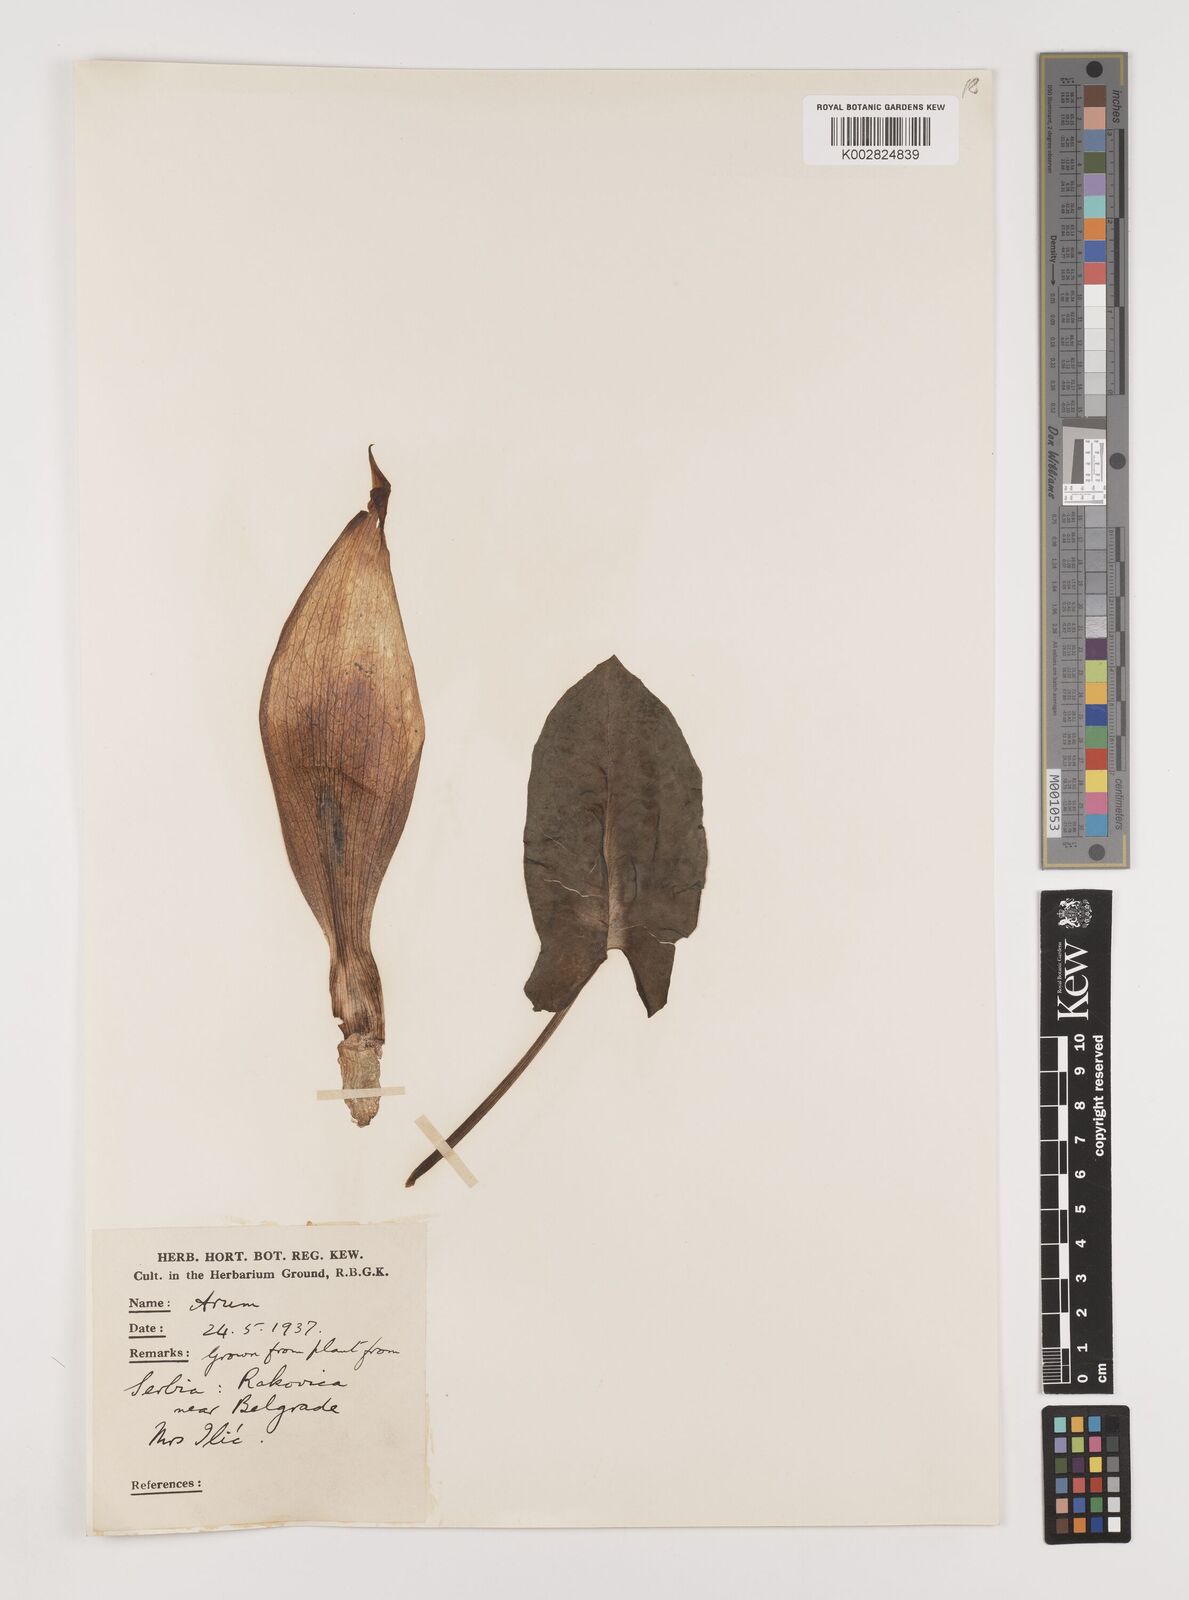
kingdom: Plantae
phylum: Tracheophyta
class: Liliopsida
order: Alismatales
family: Araceae
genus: Arum
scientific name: Arum maculatum
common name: Lords-and-ladies
